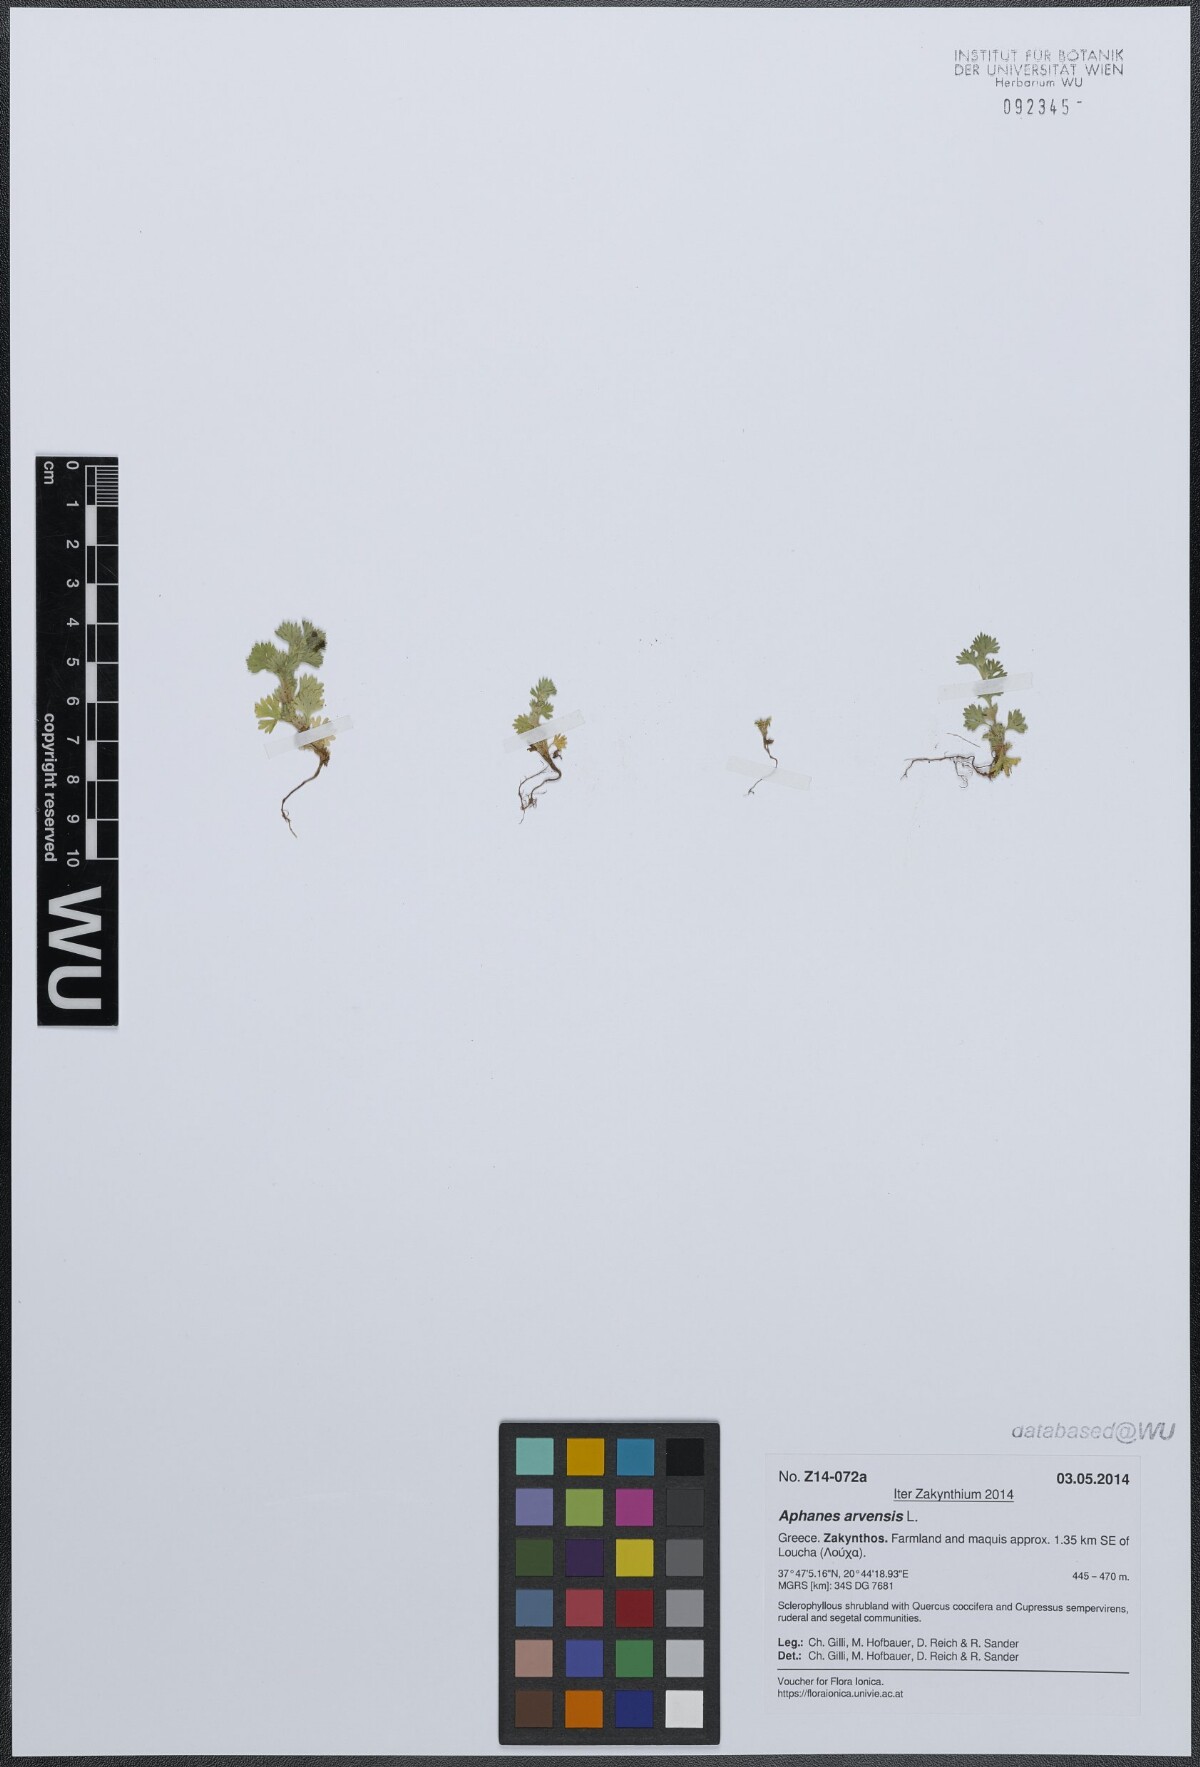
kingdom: Plantae
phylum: Tracheophyta
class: Magnoliopsida
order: Rosales
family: Rosaceae
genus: Aphanes
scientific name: Aphanes arvensis
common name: Parsley-piert
